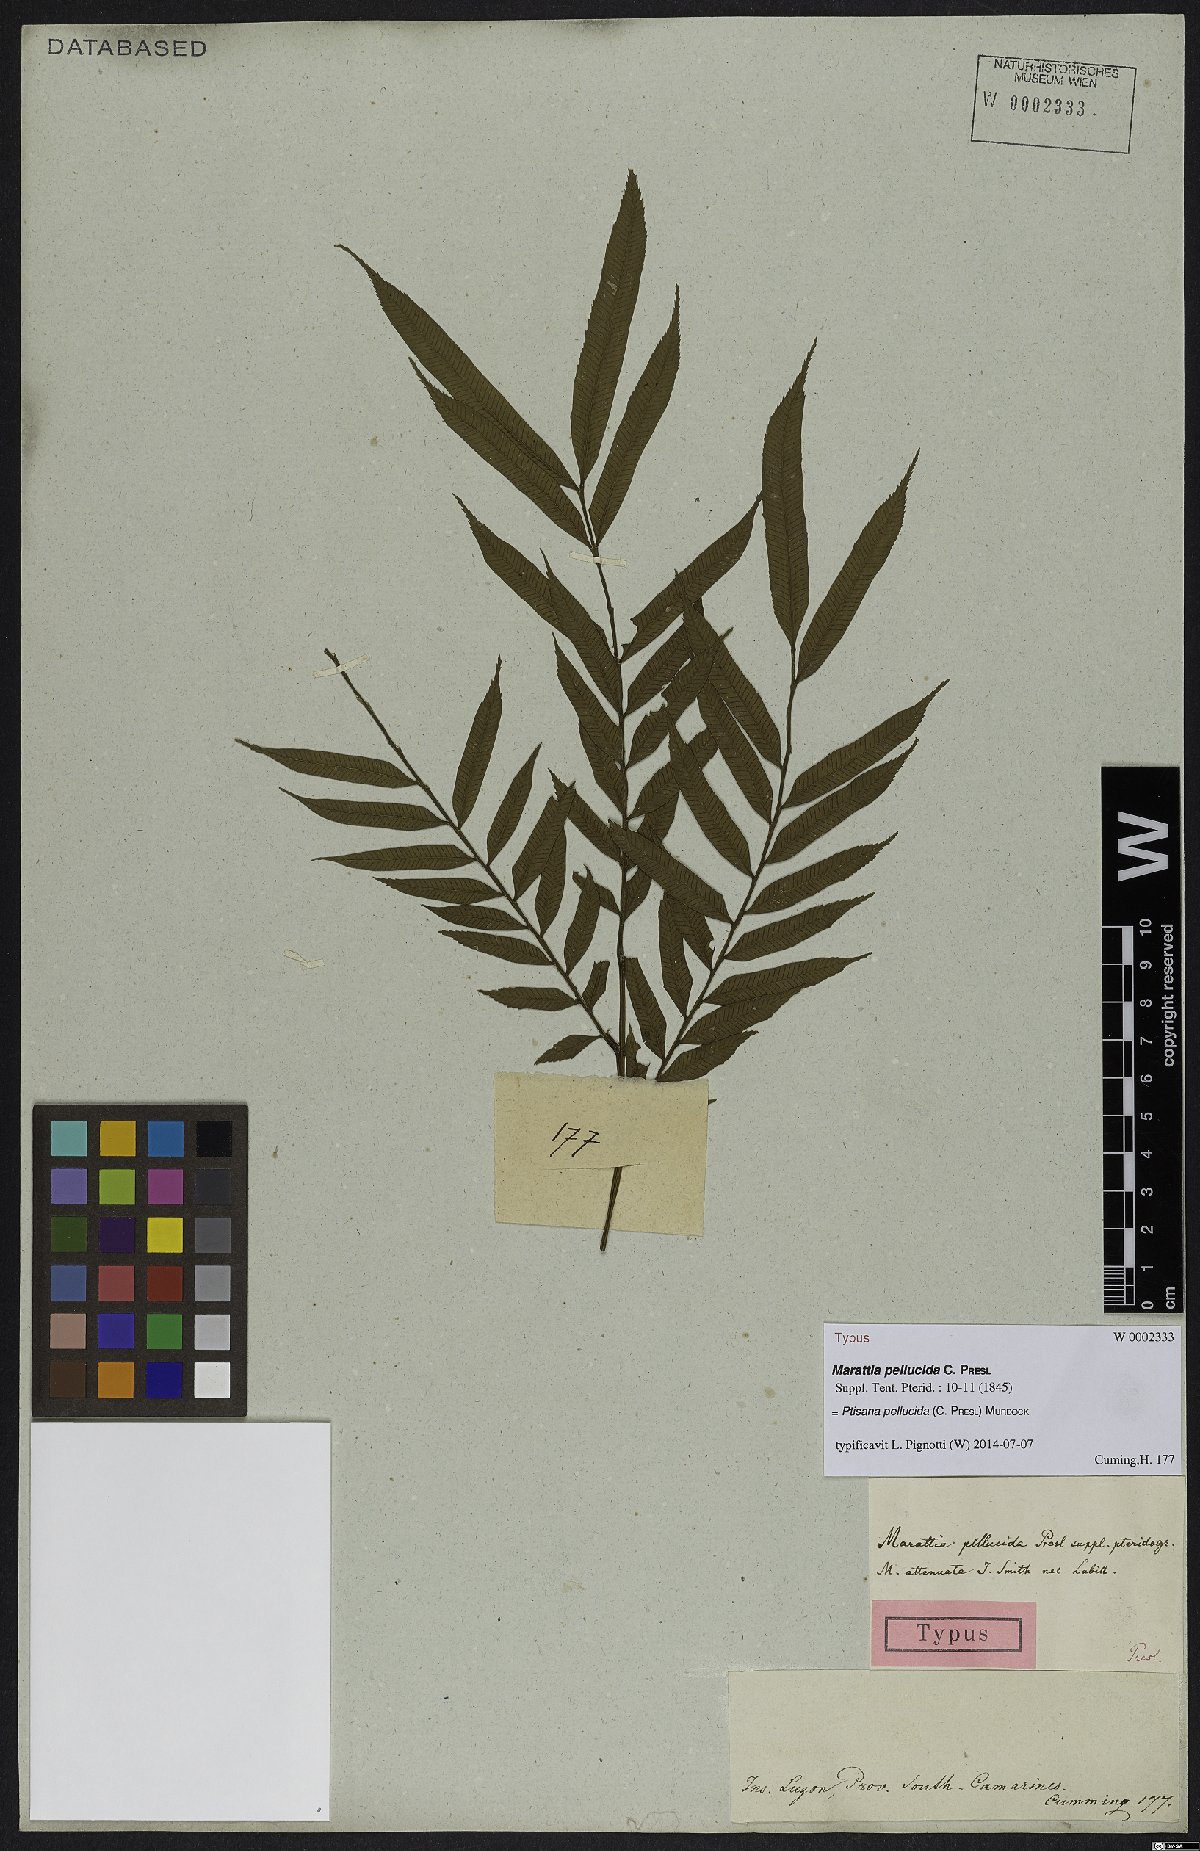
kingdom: Plantae
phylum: Tracheophyta
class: Polypodiopsida
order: Marattiales
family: Marattiaceae
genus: Ptisana
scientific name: Ptisana pellucida
